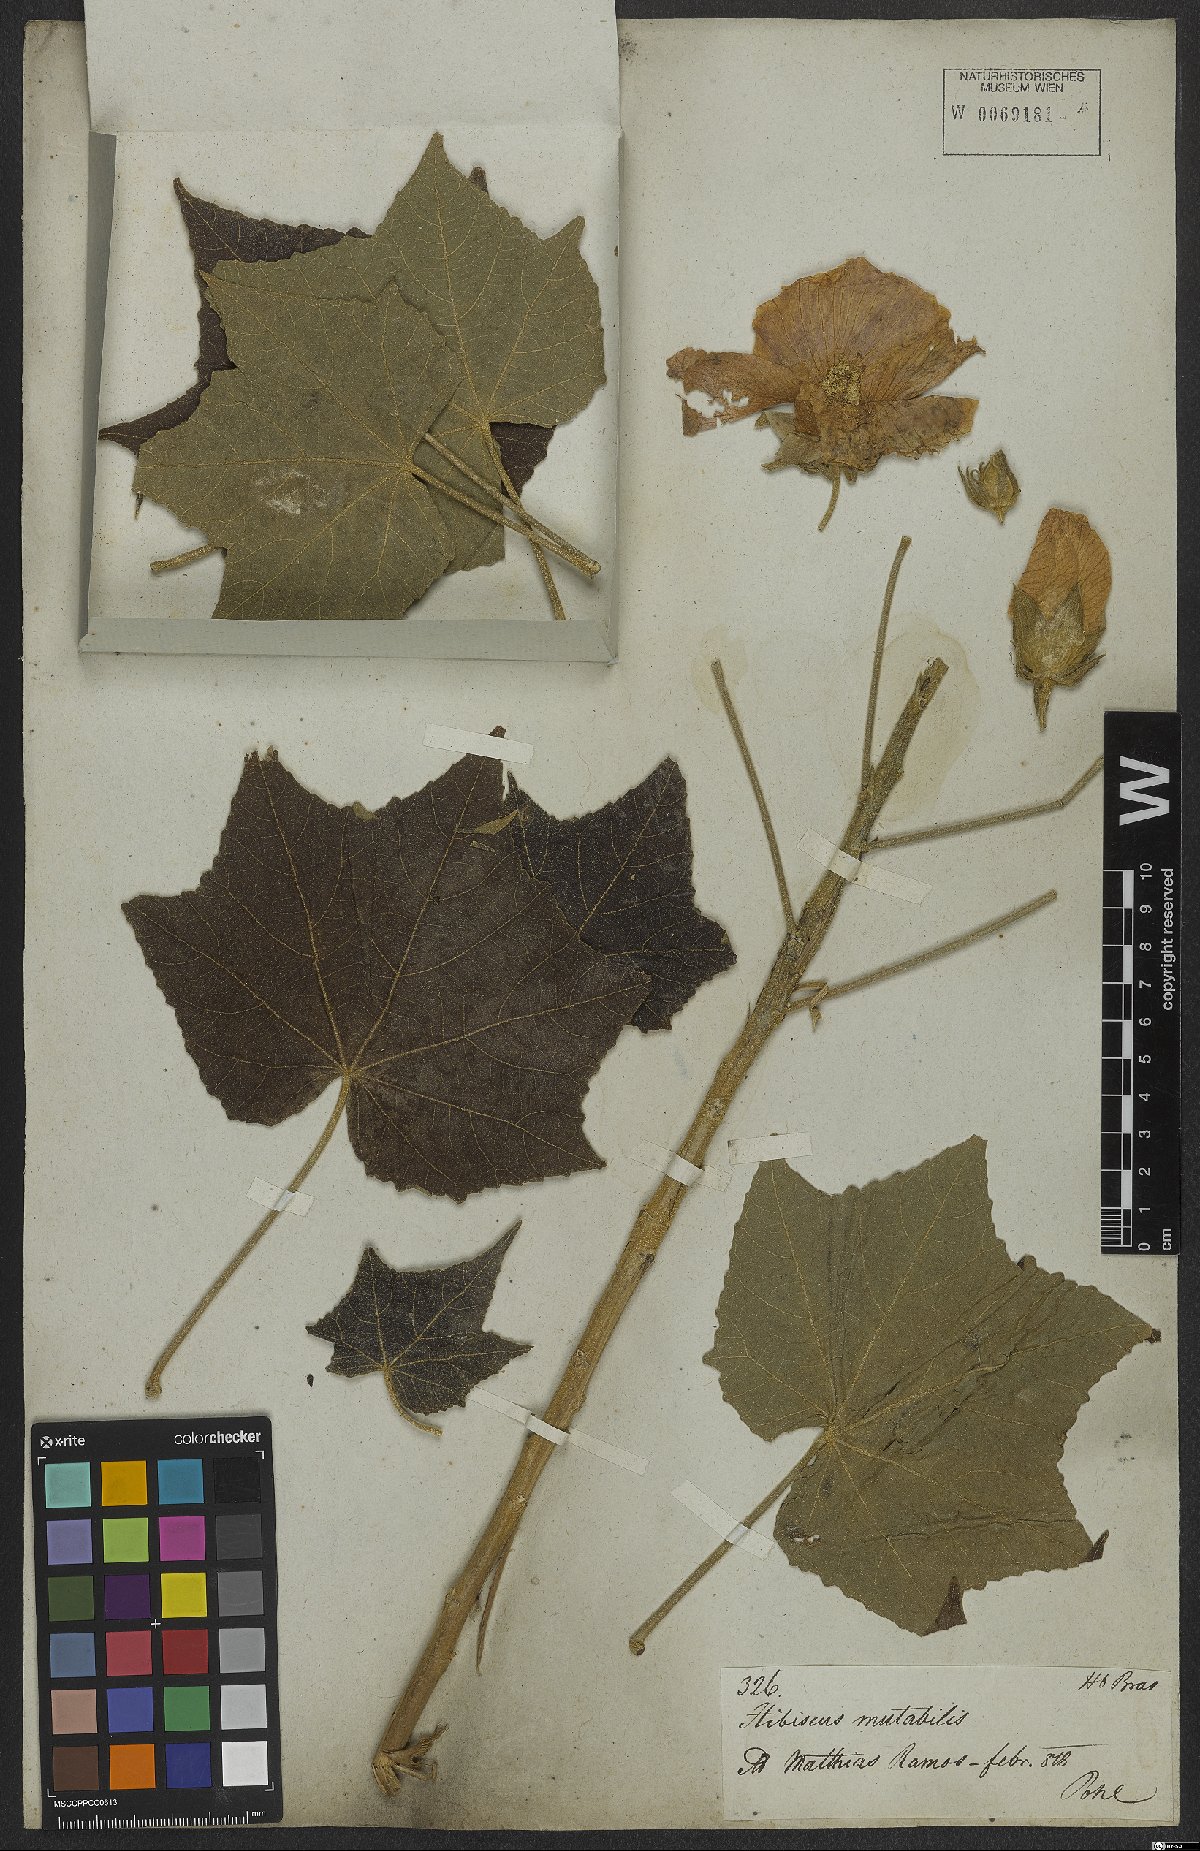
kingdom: Plantae
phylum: Tracheophyta
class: Magnoliopsida
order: Malvales
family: Malvaceae
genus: Hibiscus
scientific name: Hibiscus mutabilis
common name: Dixie rosemallow
